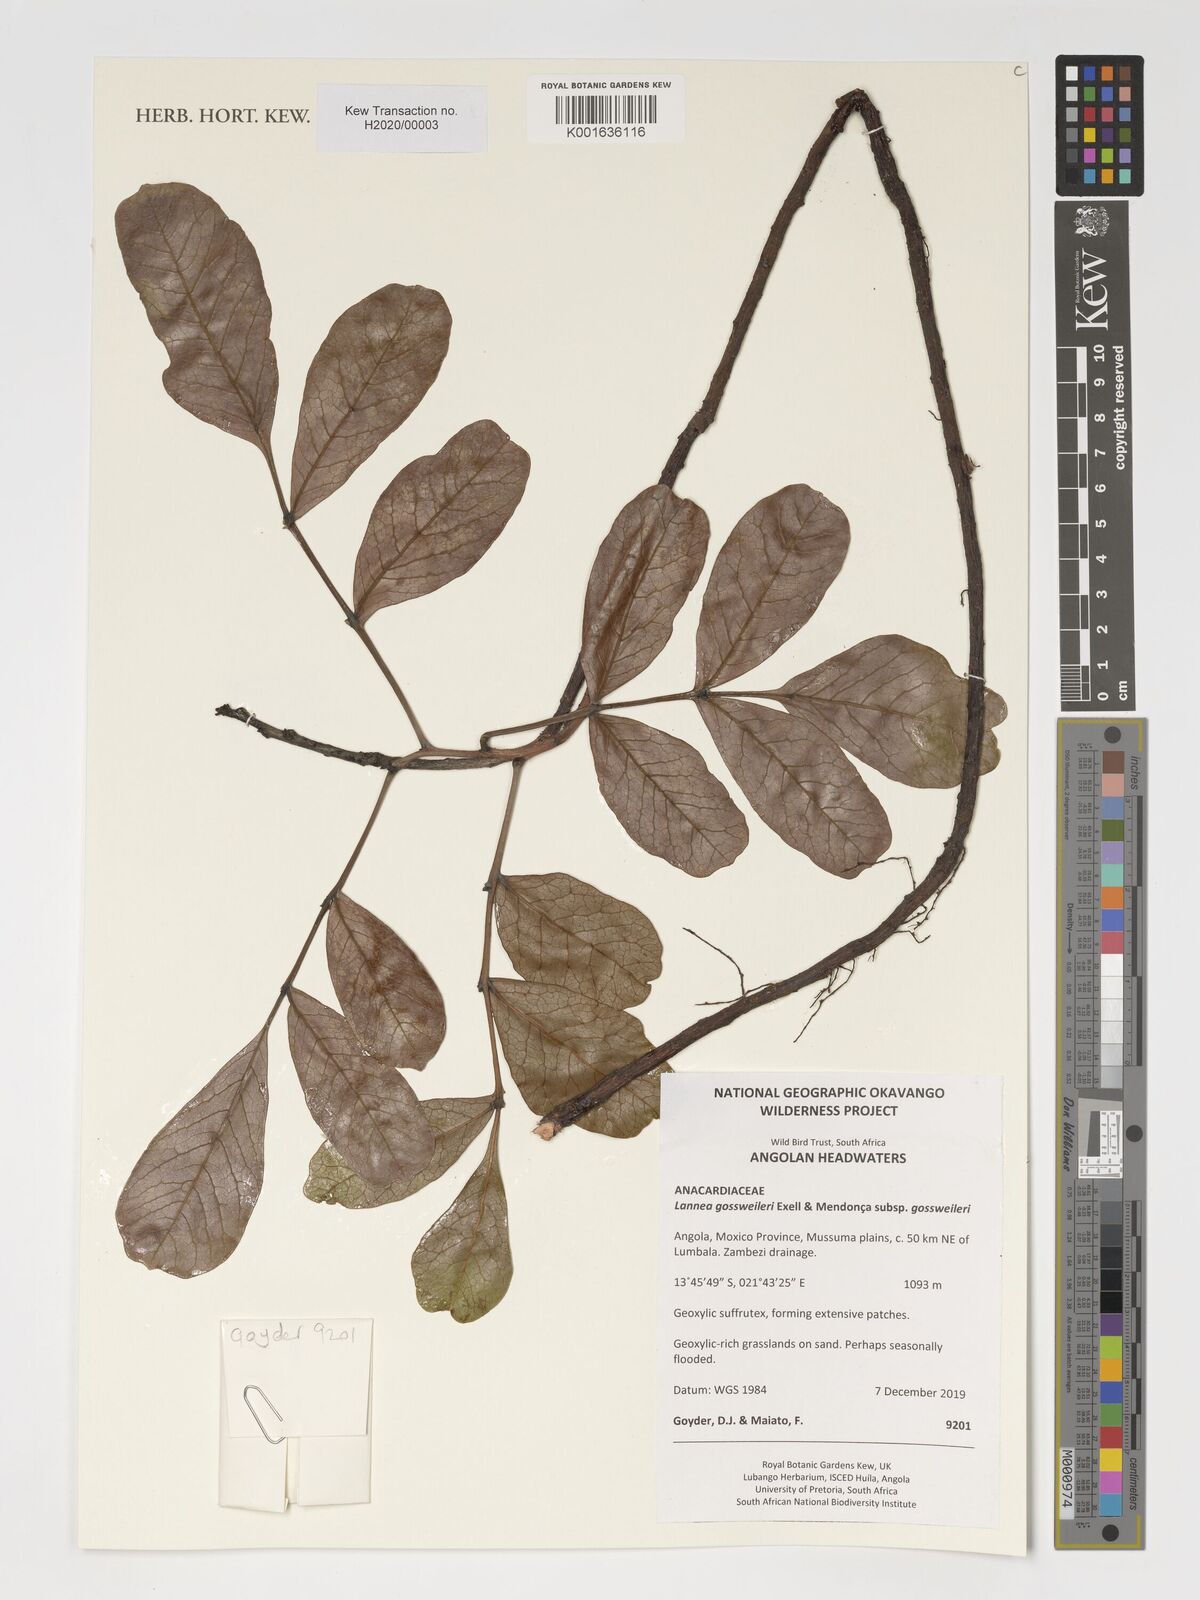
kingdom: Plantae
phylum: Tracheophyta
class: Magnoliopsida
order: Sapindales
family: Anacardiaceae
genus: Lannea
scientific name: Lannea gossweileri
